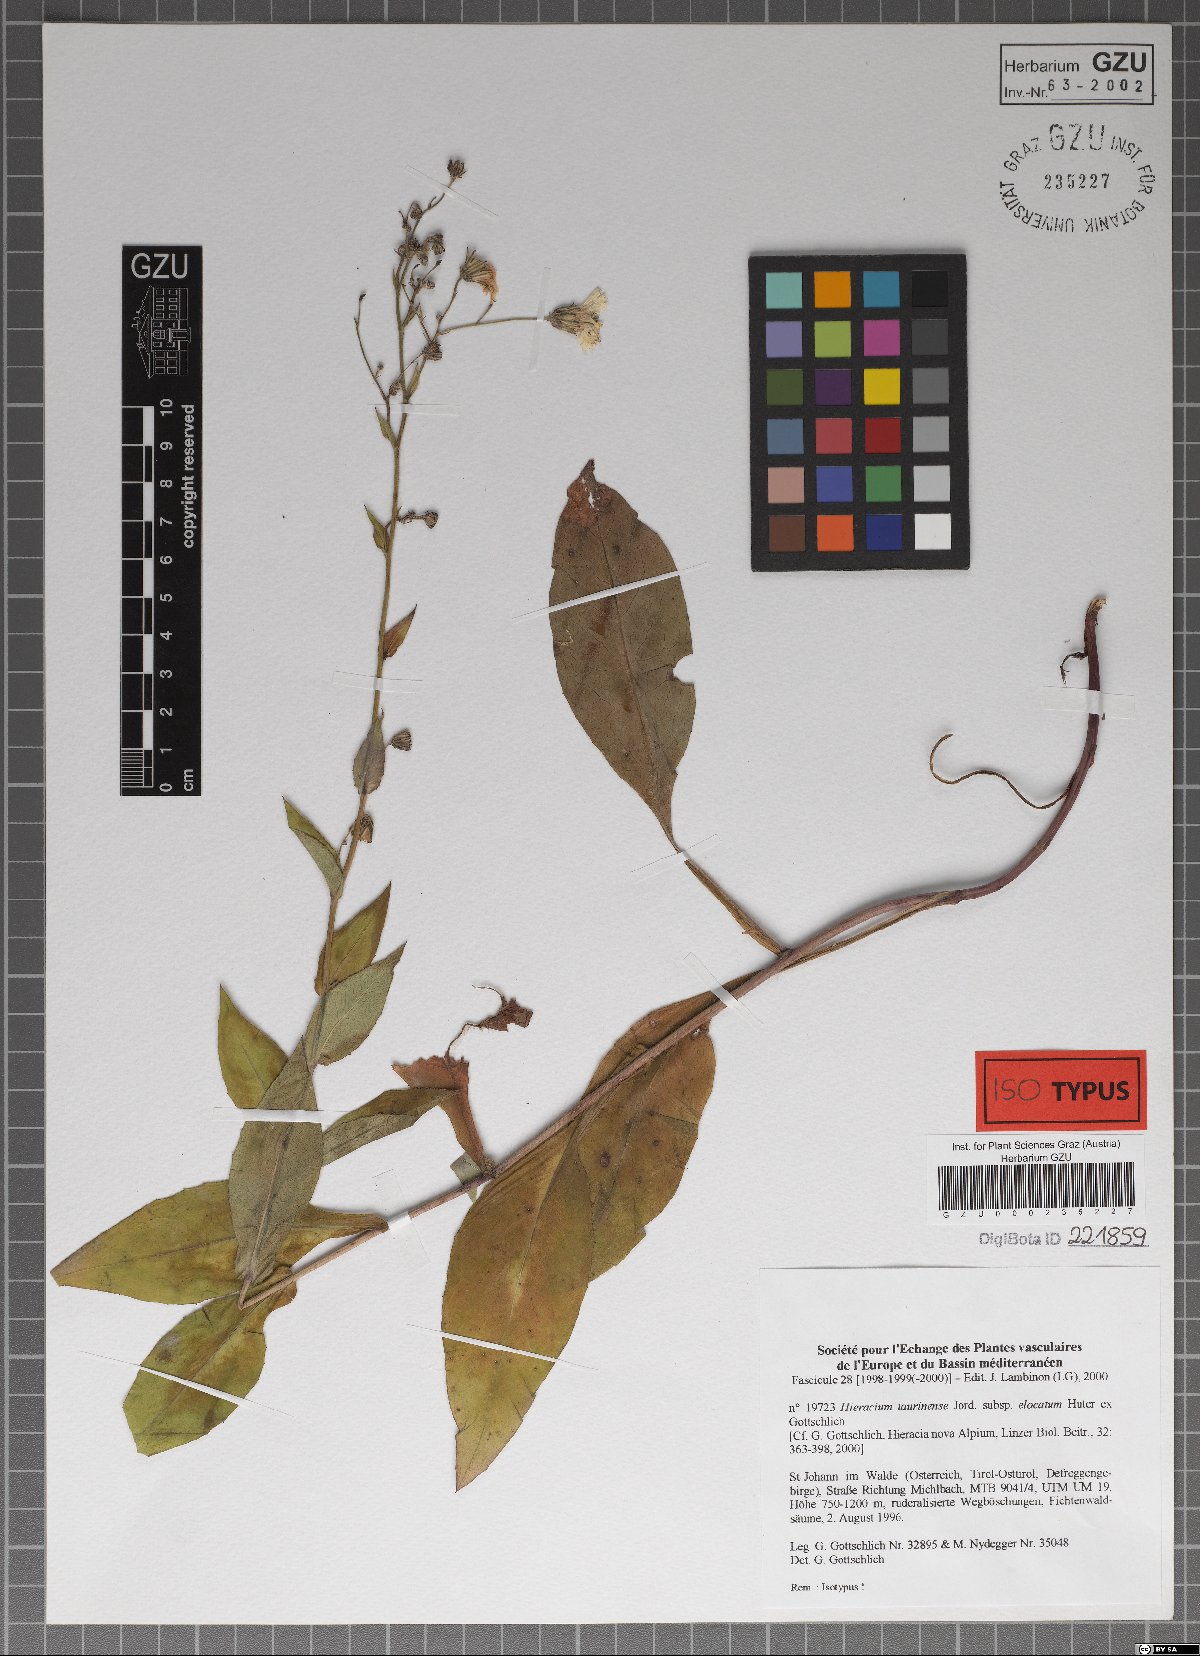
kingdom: Plantae
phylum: Tracheophyta
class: Magnoliopsida
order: Asterales
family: Asteraceae
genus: Hieracium
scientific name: Hieracium symphytaceum
